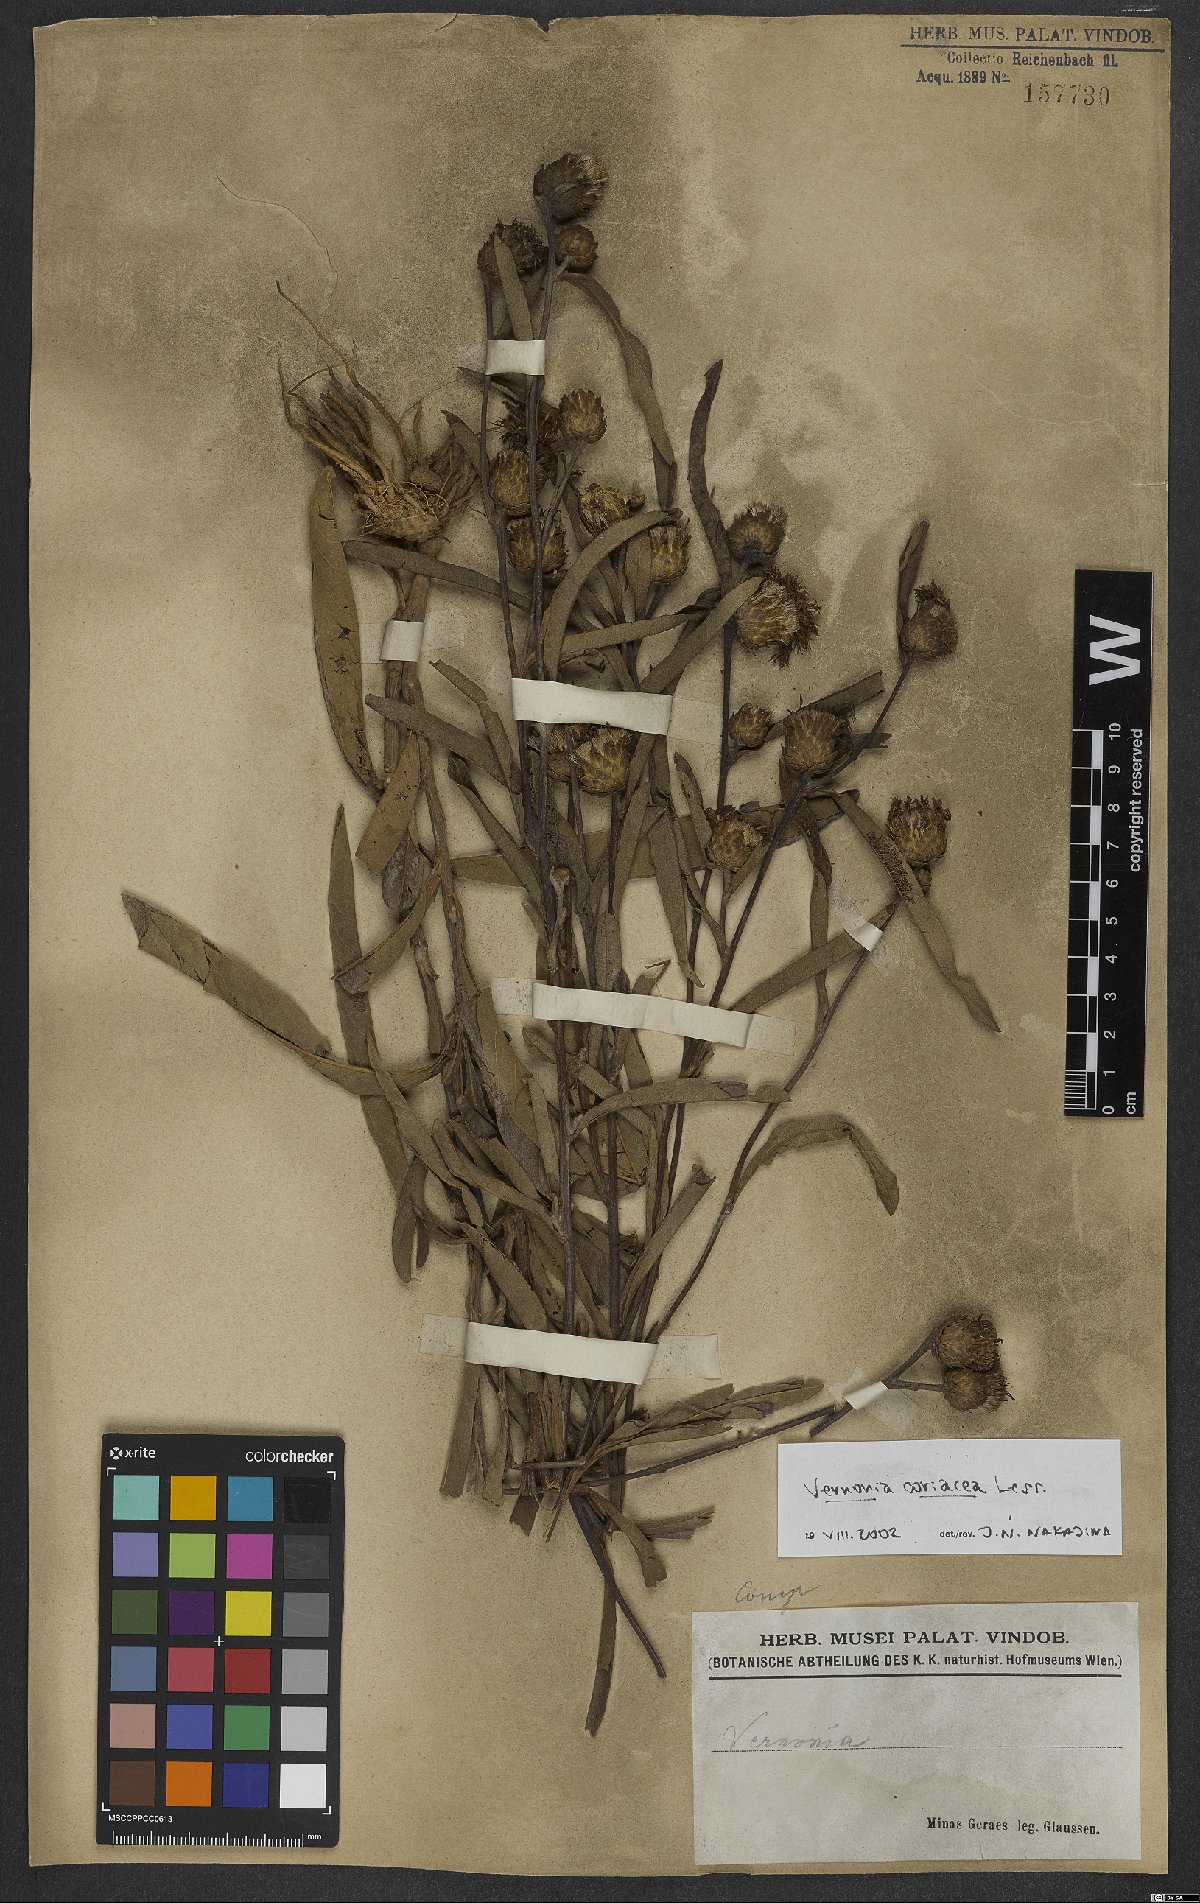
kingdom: Plantae
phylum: Tracheophyta
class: Magnoliopsida
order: Asterales
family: Asteraceae
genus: Lessingianthus
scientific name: Lessingianthus coriaceus
